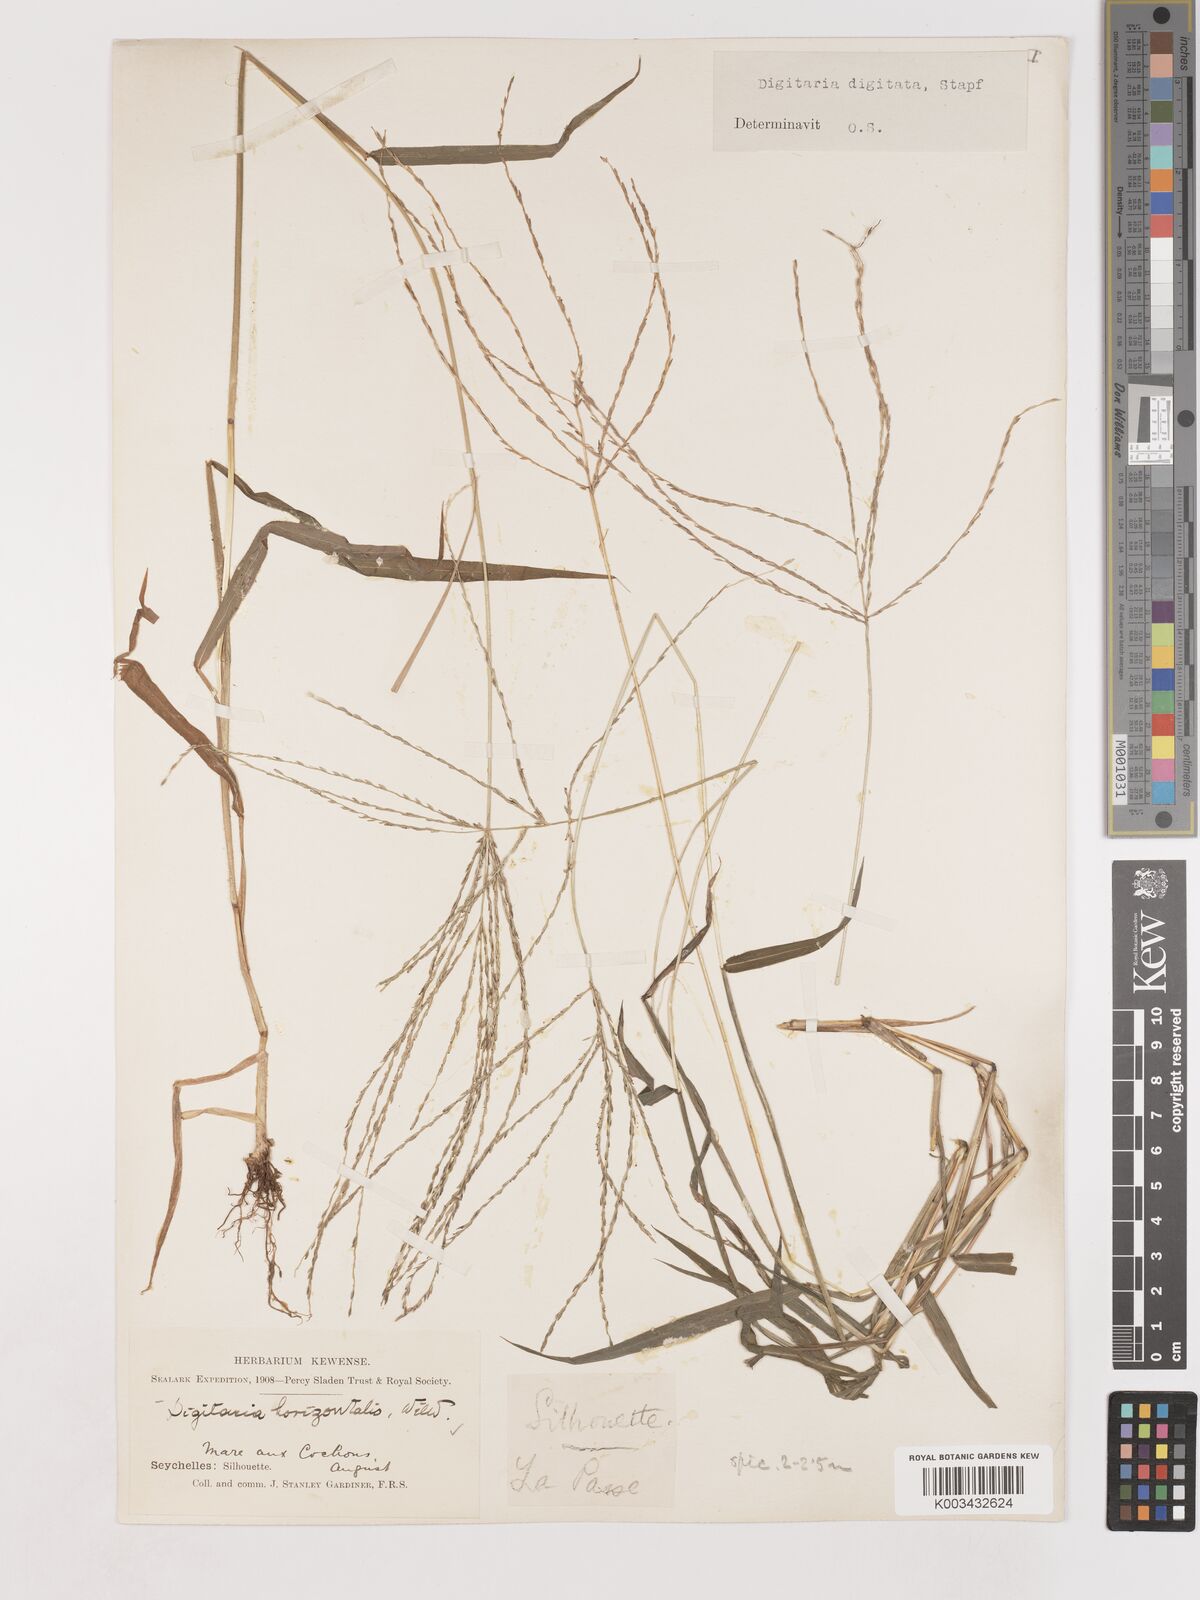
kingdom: Plantae
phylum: Tracheophyta
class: Liliopsida
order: Poales
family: Poaceae
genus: Digitaria
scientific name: Digitaria horizontalis
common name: Jamaican crabgrass
